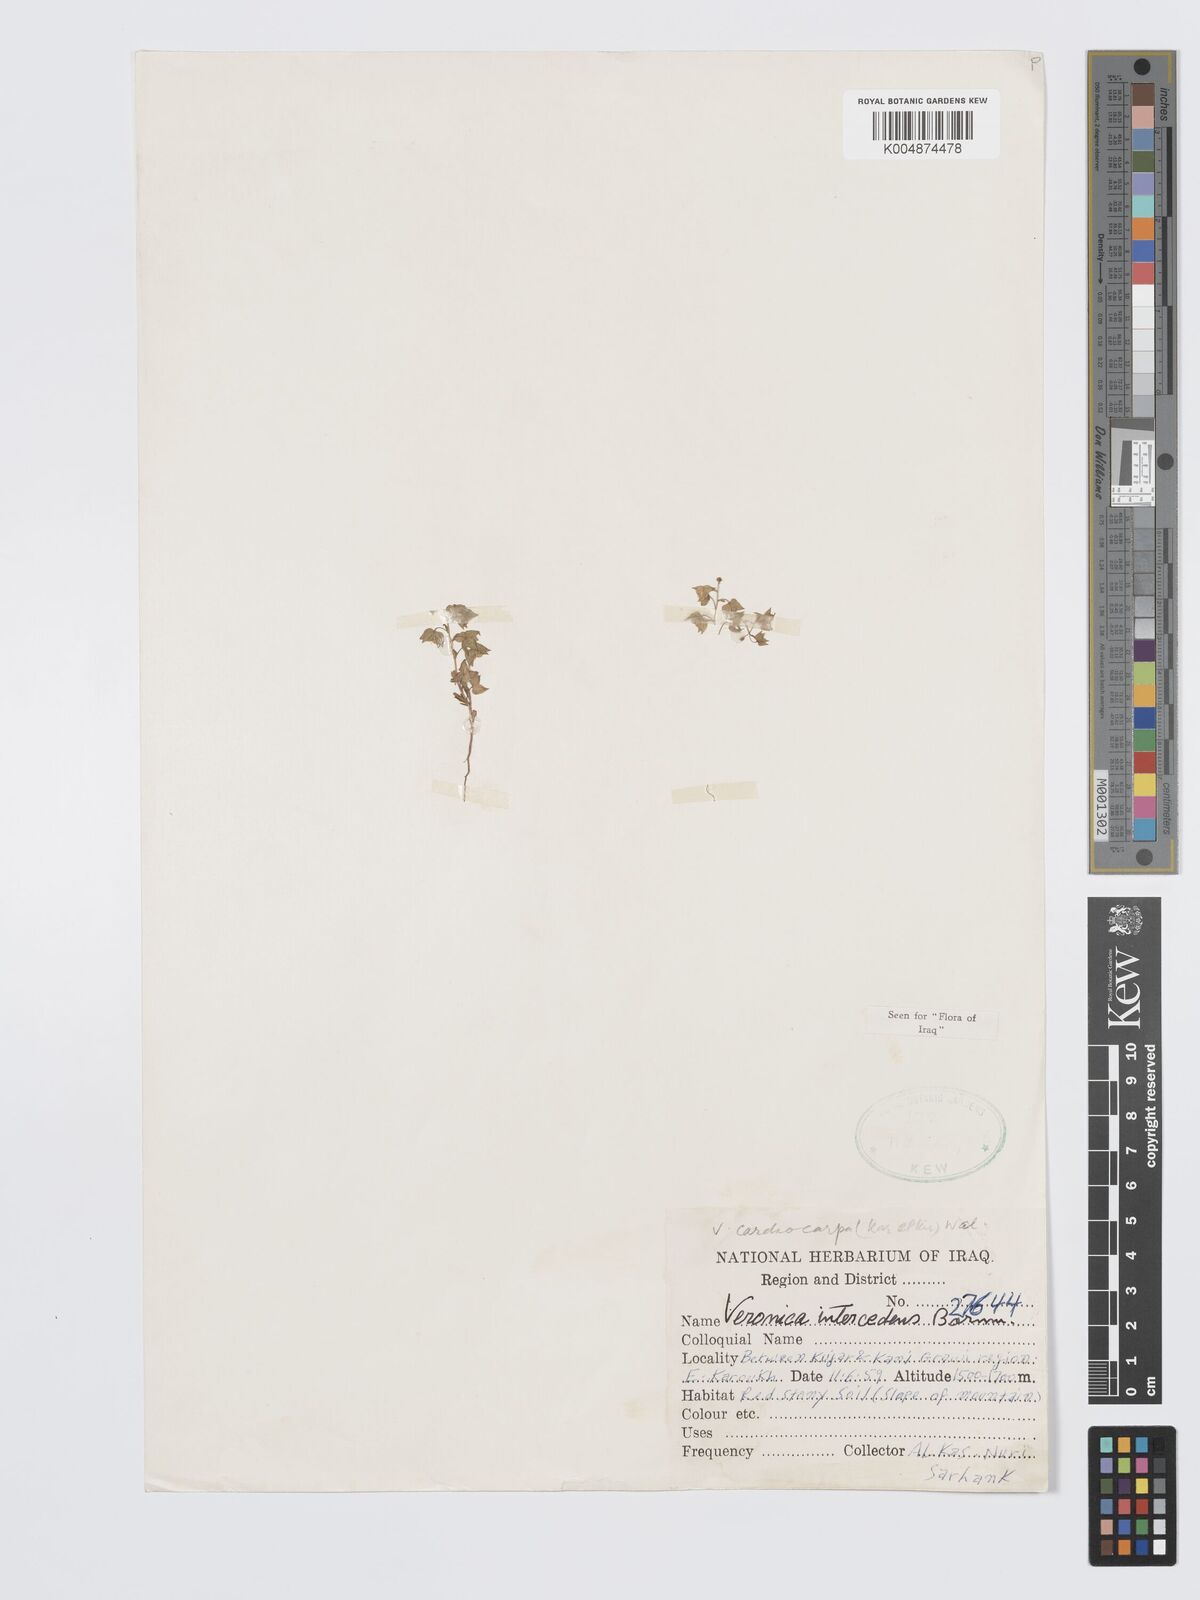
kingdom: Plantae
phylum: Tracheophyta
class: Magnoliopsida
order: Lamiales
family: Plantaginaceae
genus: Veronica
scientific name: Veronica intercedens
